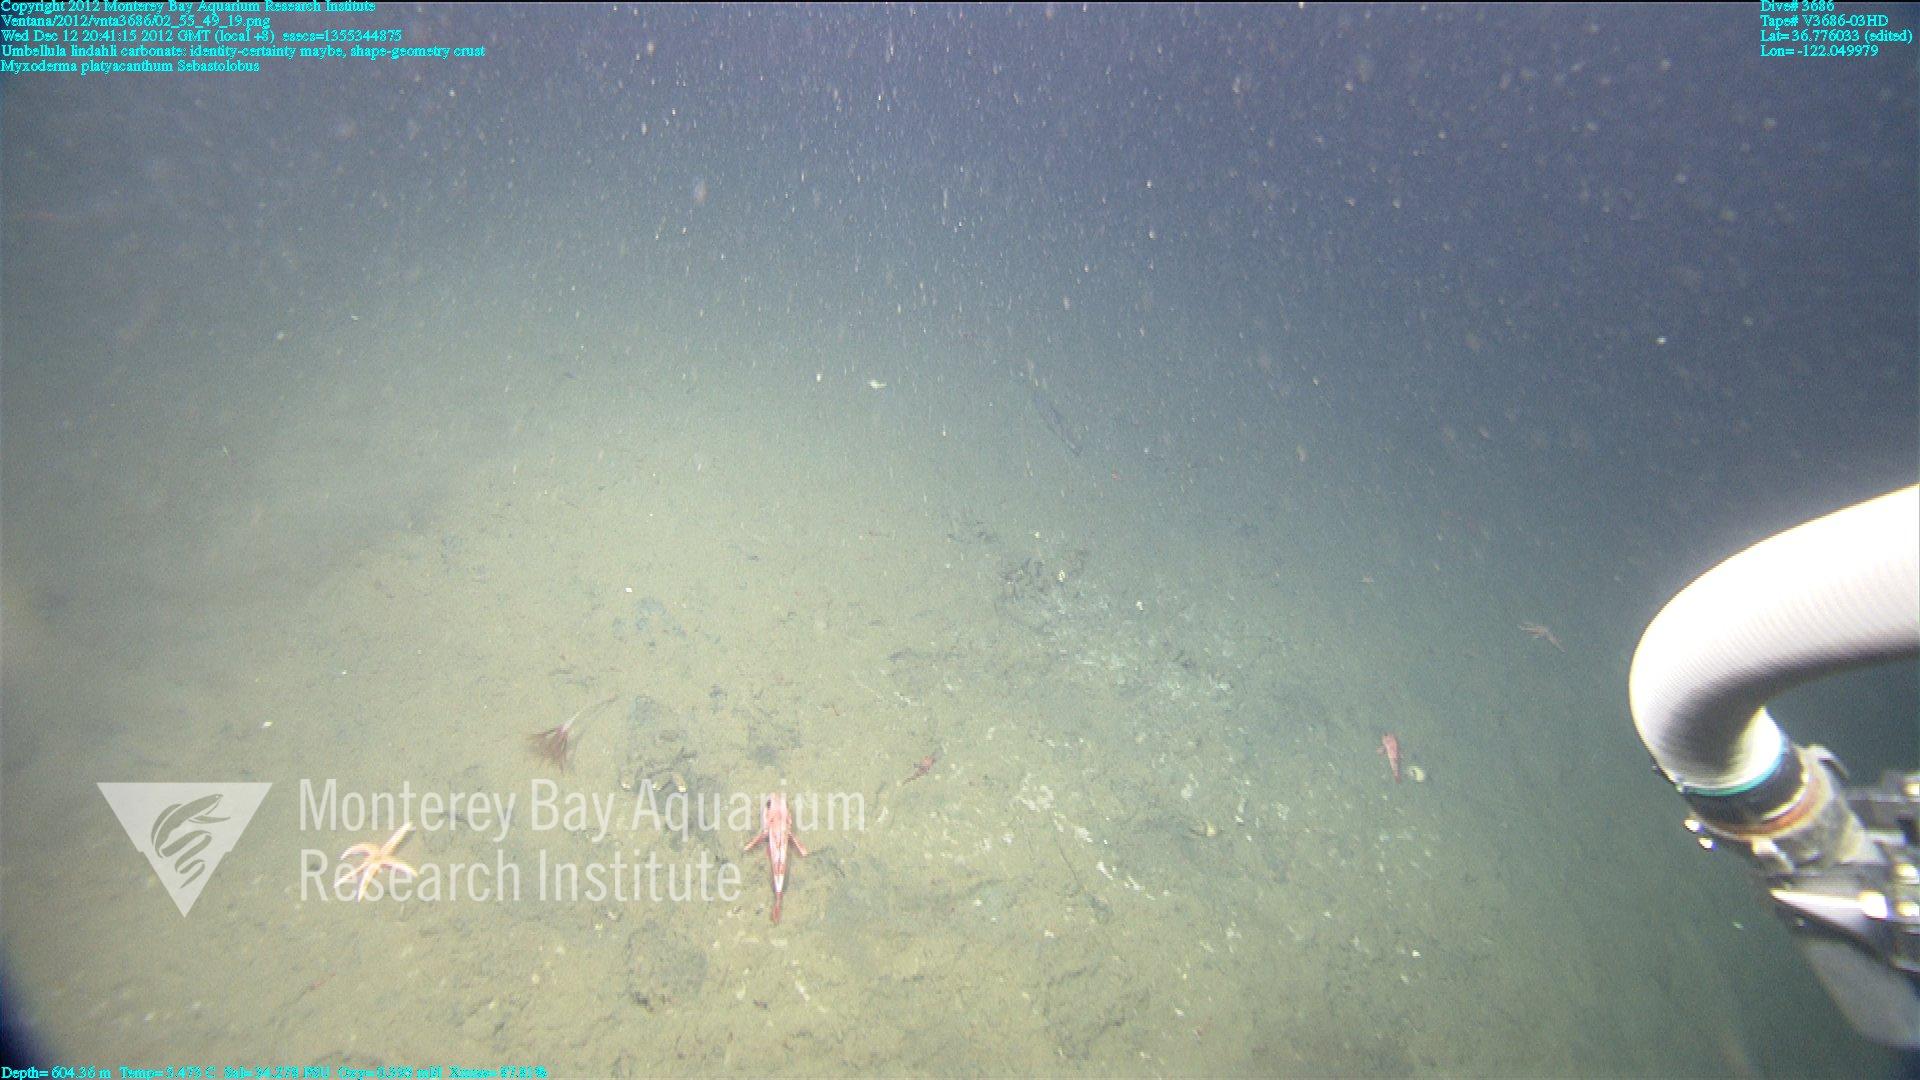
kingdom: Animalia
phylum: Cnidaria
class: Anthozoa
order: Scleralcyonacea
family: Umbellulidae
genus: Umbellula
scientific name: Umbellula lindahli
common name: Lindahl's droopy sea pen
